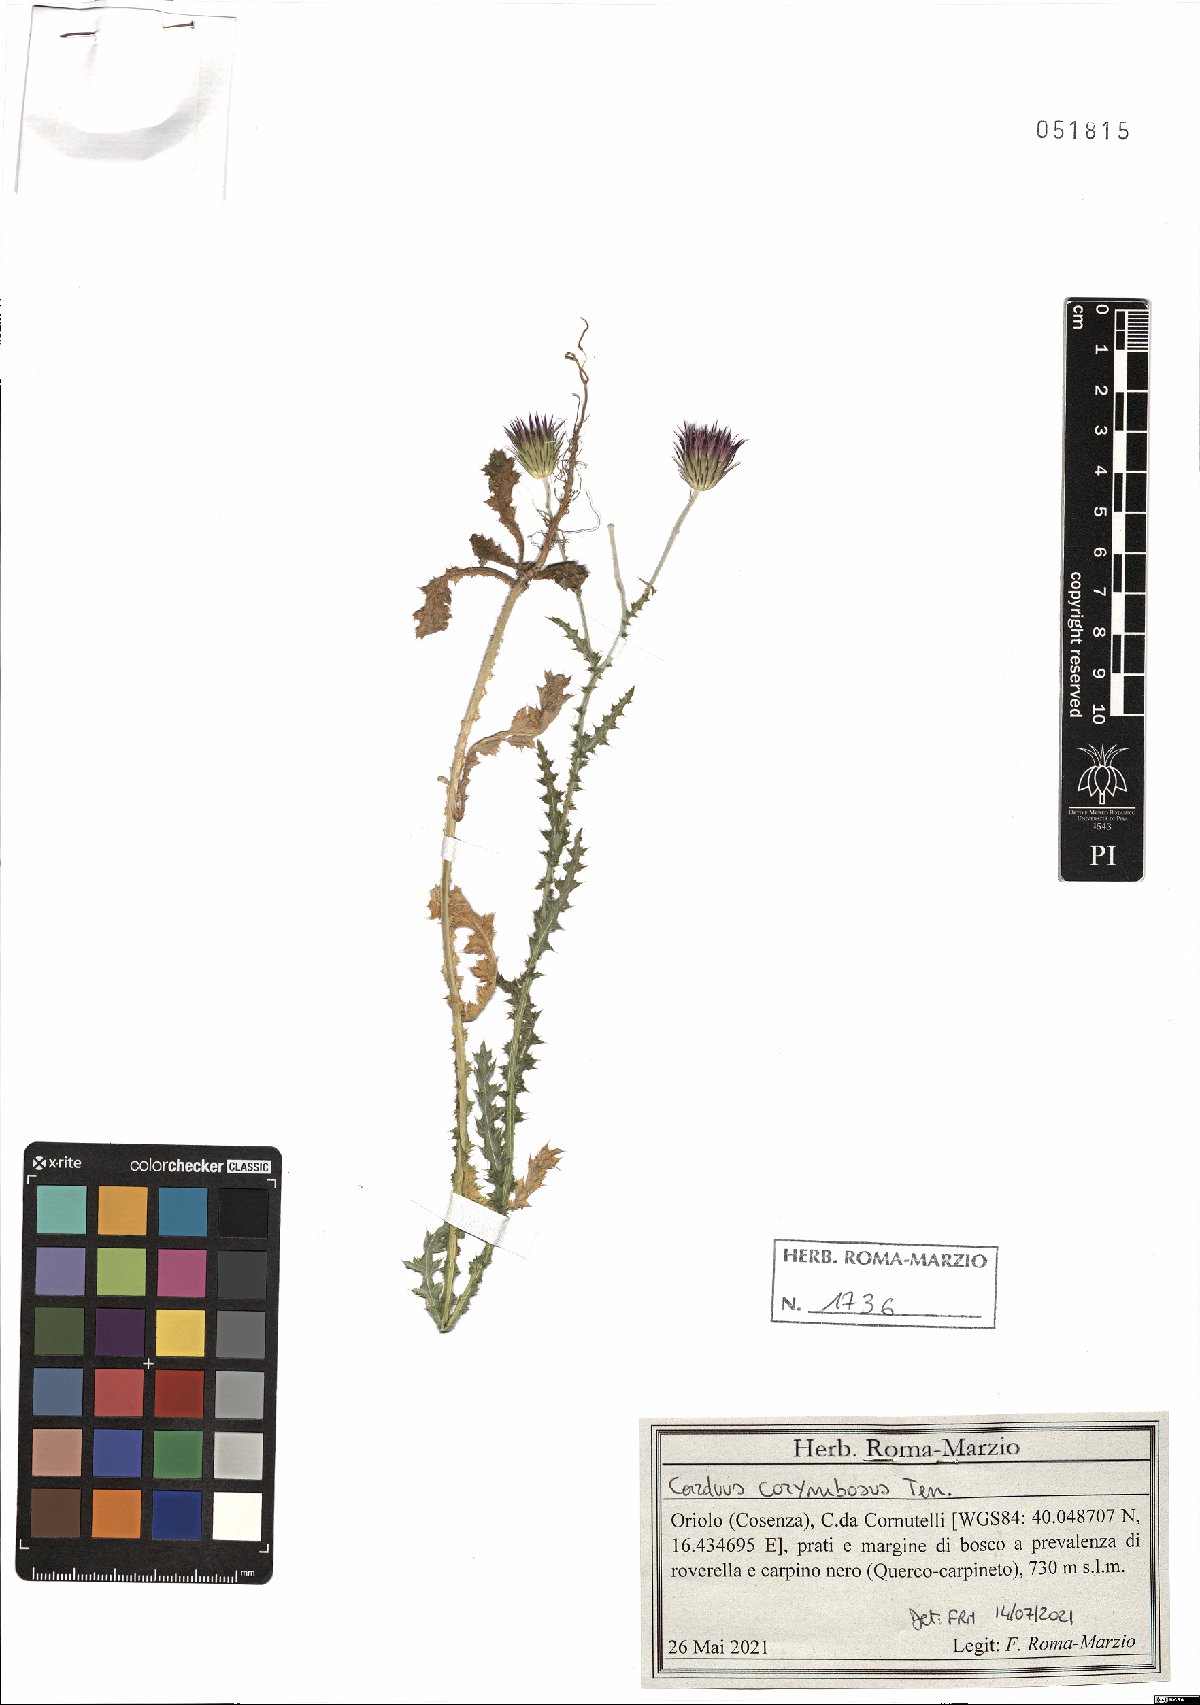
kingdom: Plantae
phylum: Tracheophyta
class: Magnoliopsida
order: Asterales
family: Asteraceae
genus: Carduus
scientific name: Carduus corymbosus
